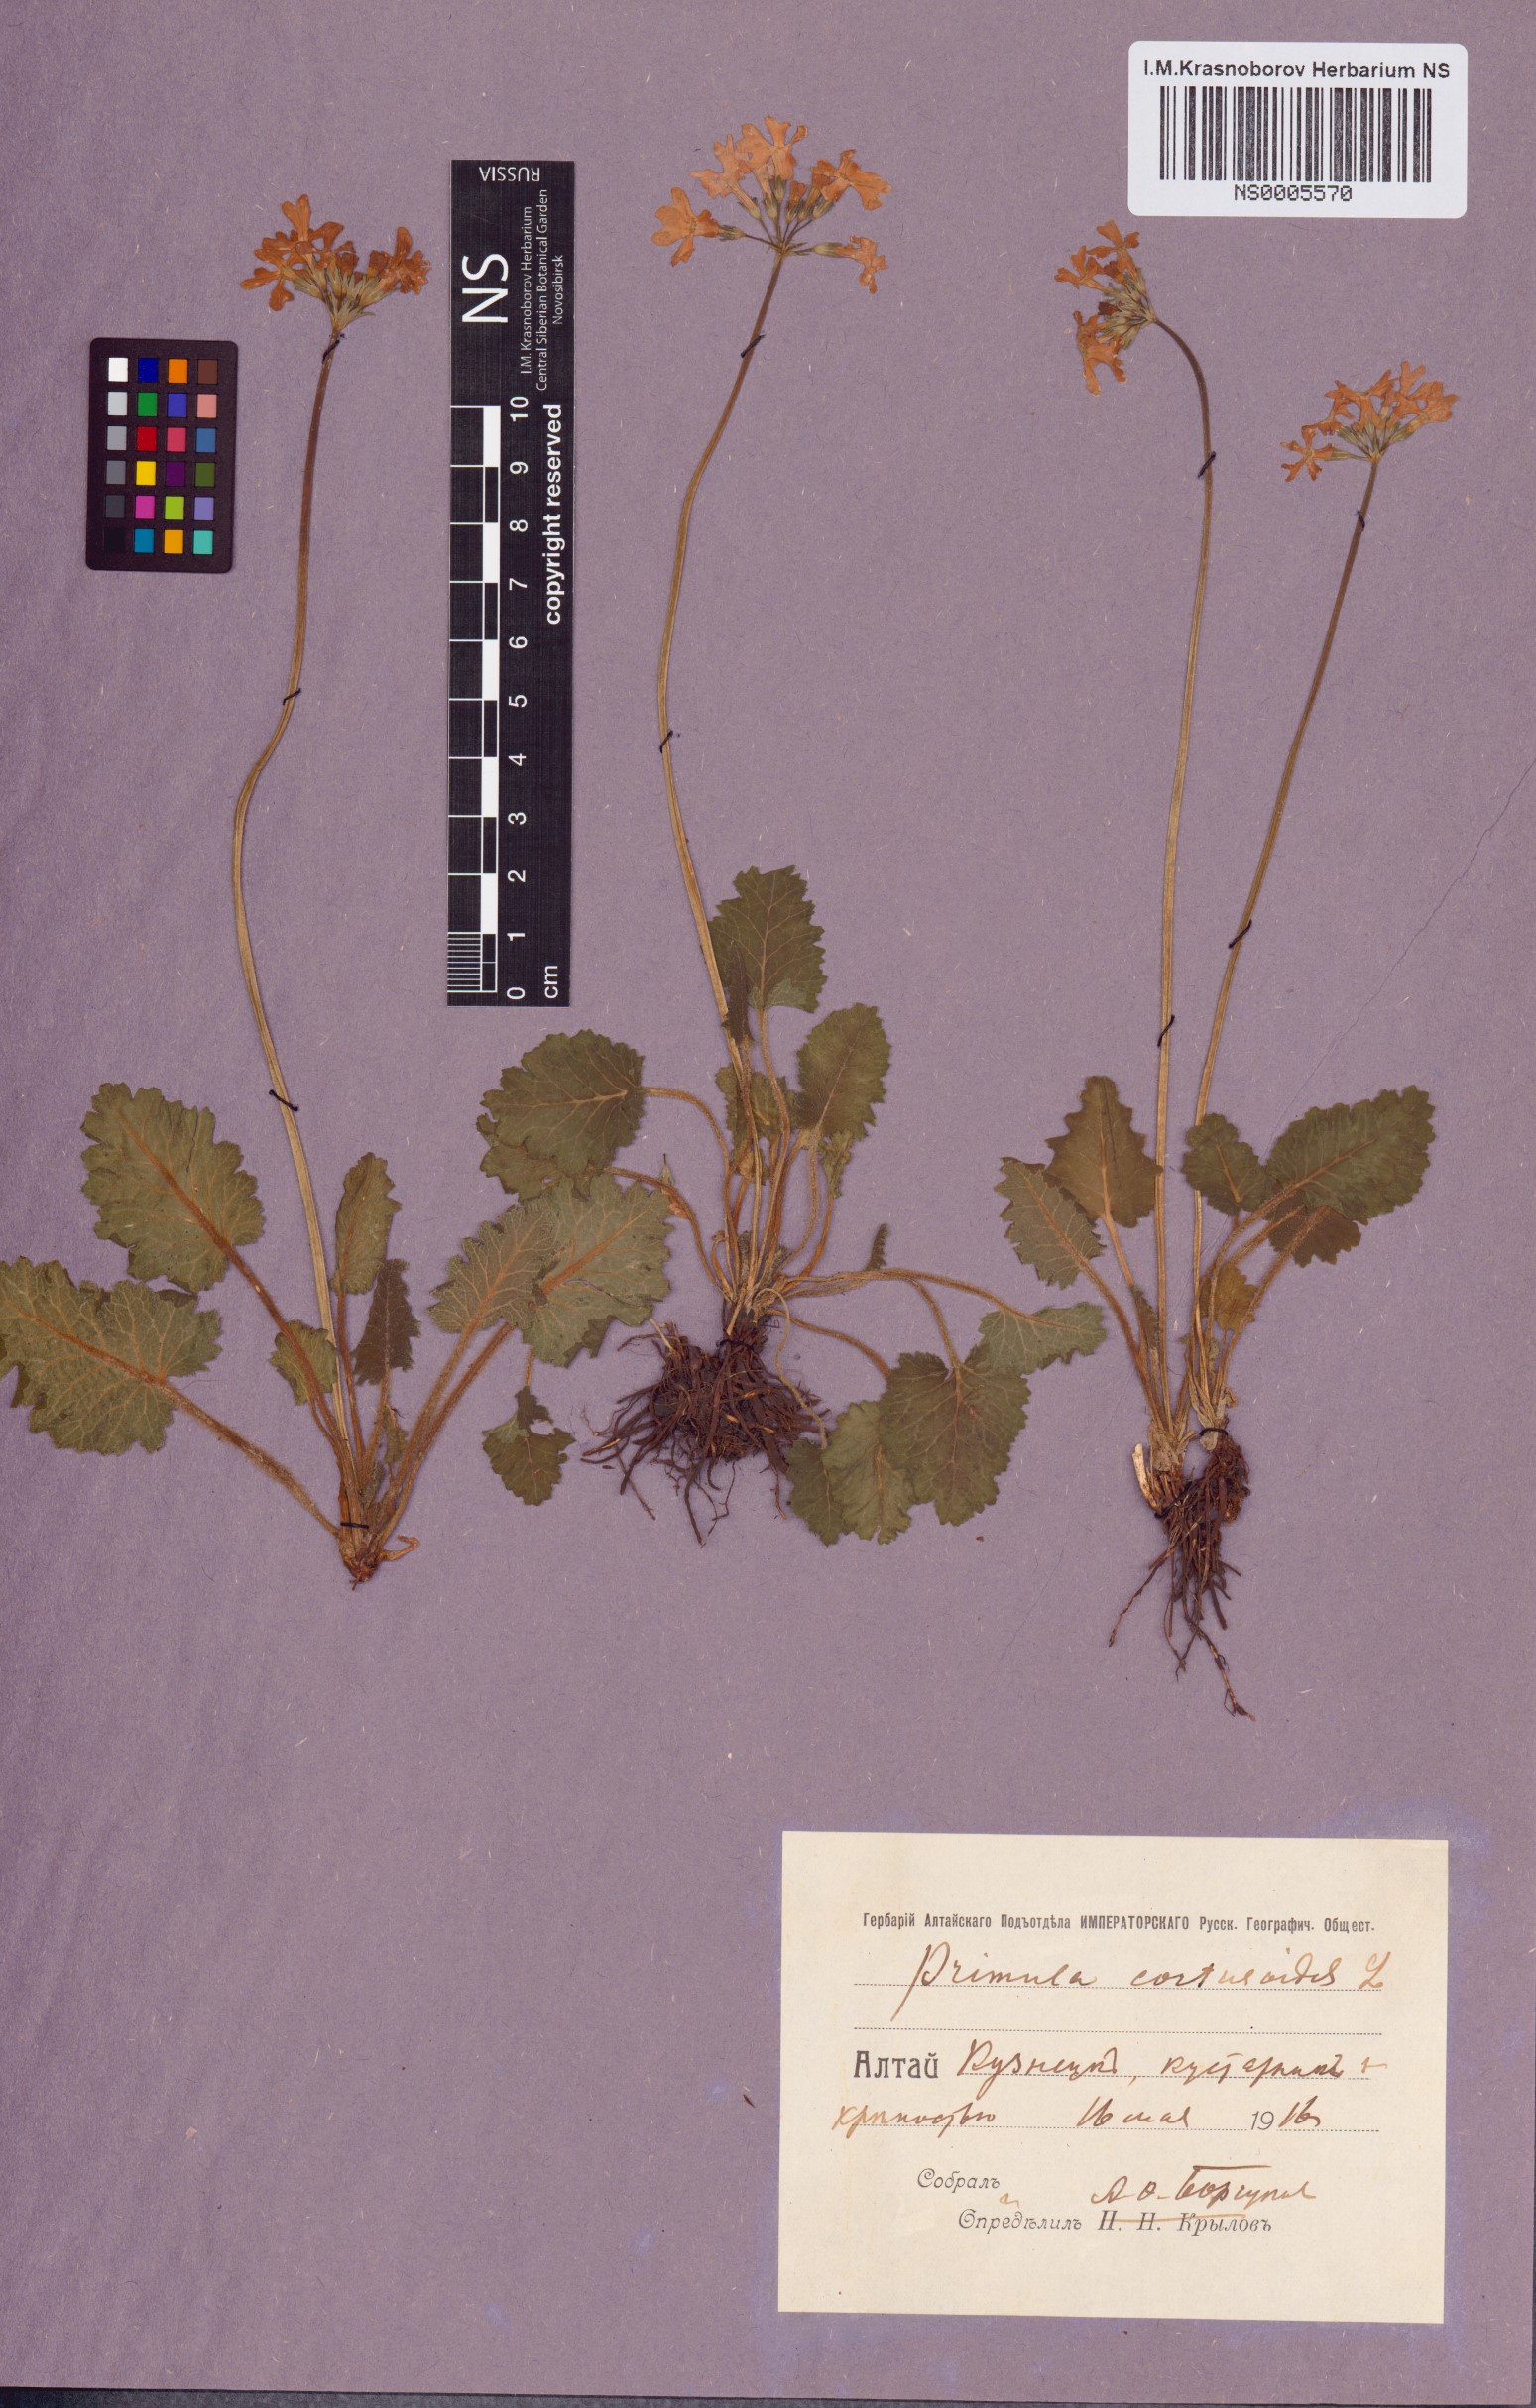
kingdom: Plantae
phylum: Tracheophyta
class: Magnoliopsida
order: Ericales
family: Primulaceae
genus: Primula
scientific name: Primula cortusoides
